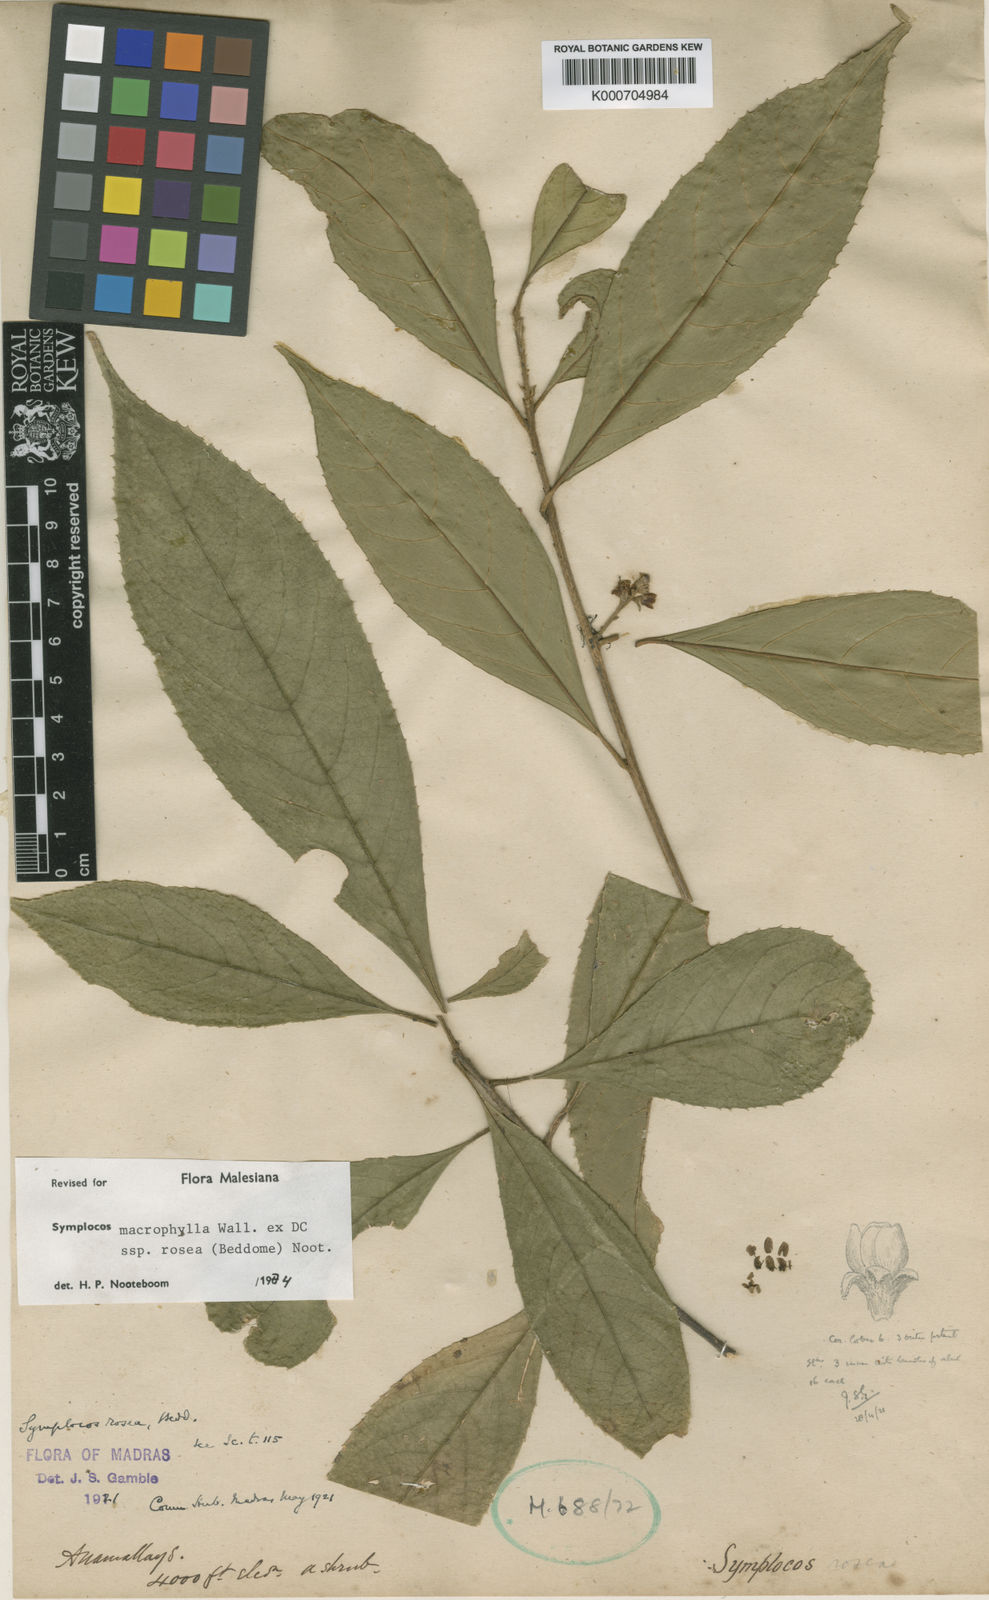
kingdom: Plantae
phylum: Tracheophyta
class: Magnoliopsida
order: Ericales
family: Symplocaceae
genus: Symplocos
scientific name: Symplocos macrophylla
